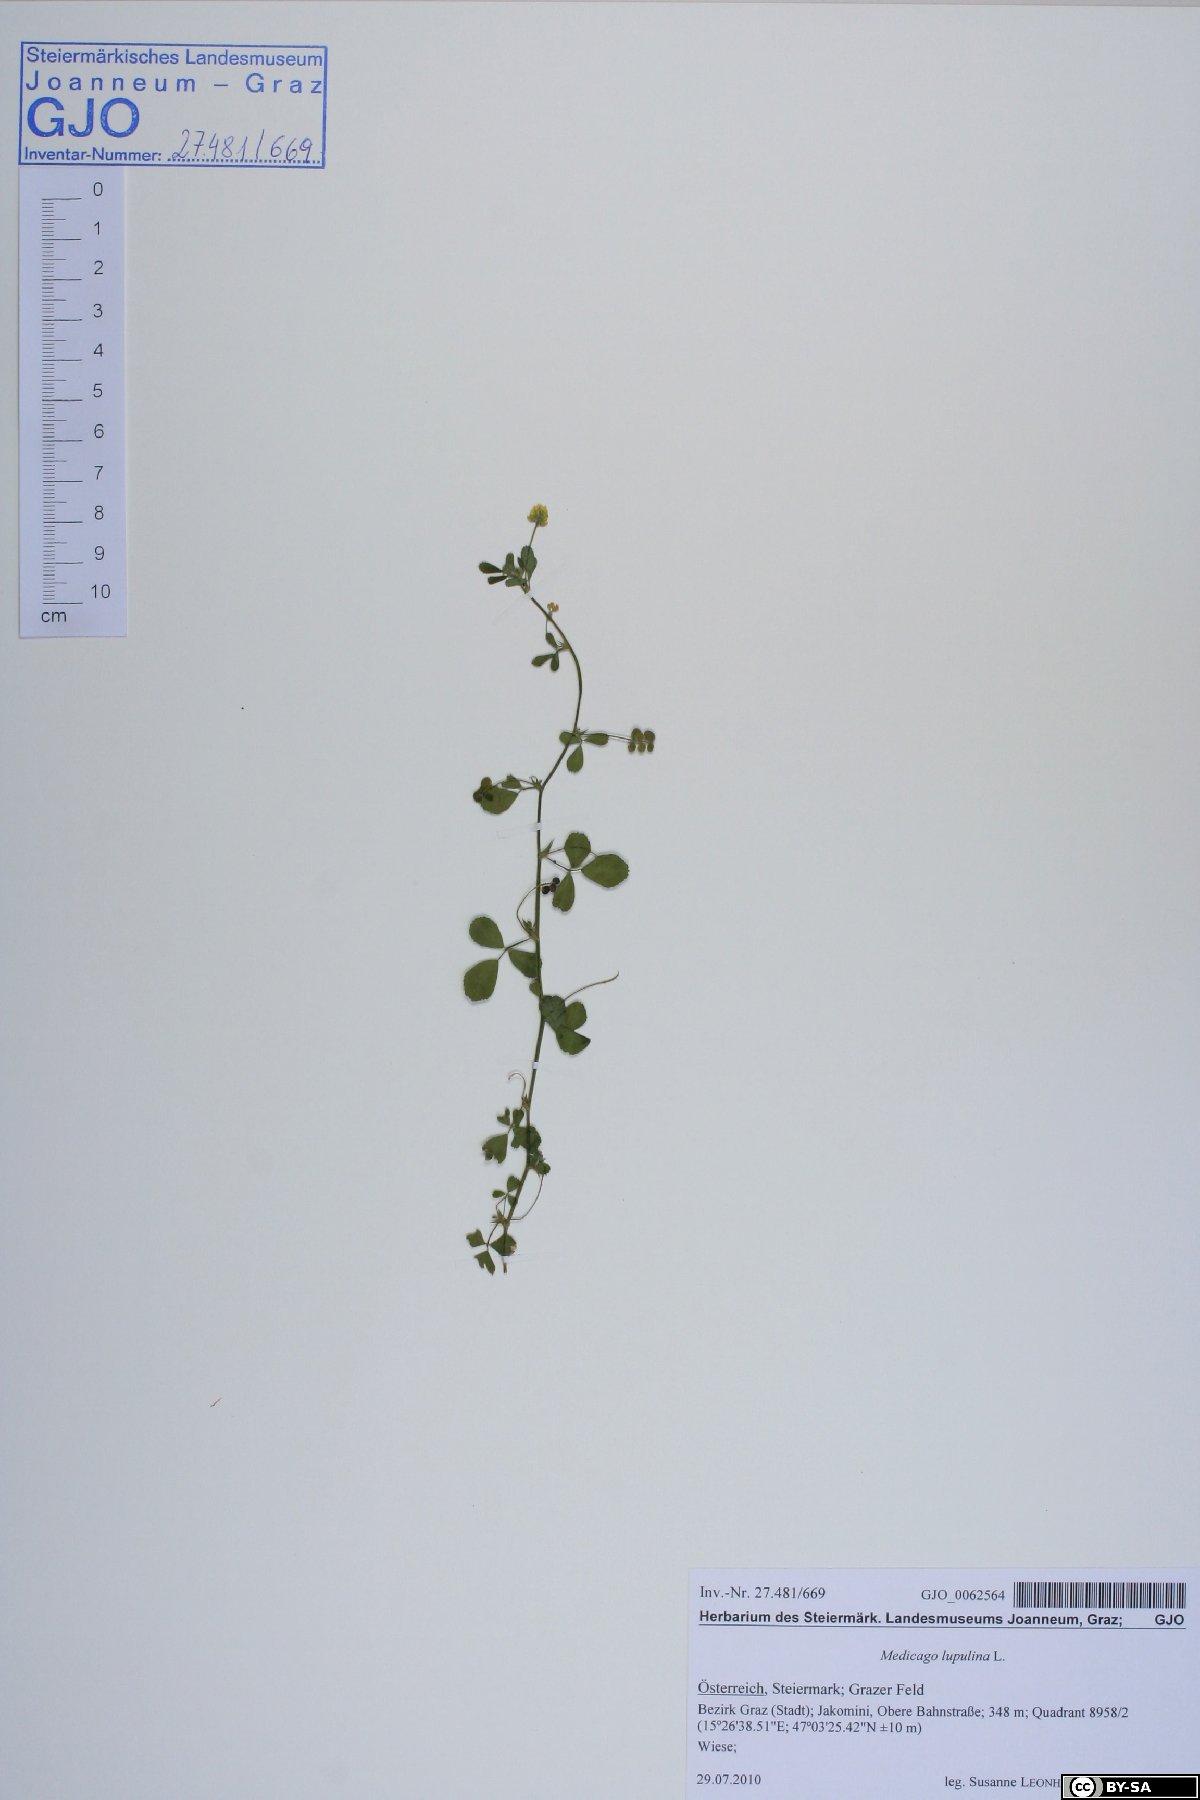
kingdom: Plantae
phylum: Tracheophyta
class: Magnoliopsida
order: Fabales
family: Fabaceae
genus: Medicago
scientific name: Medicago lupulina
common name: Black medick
